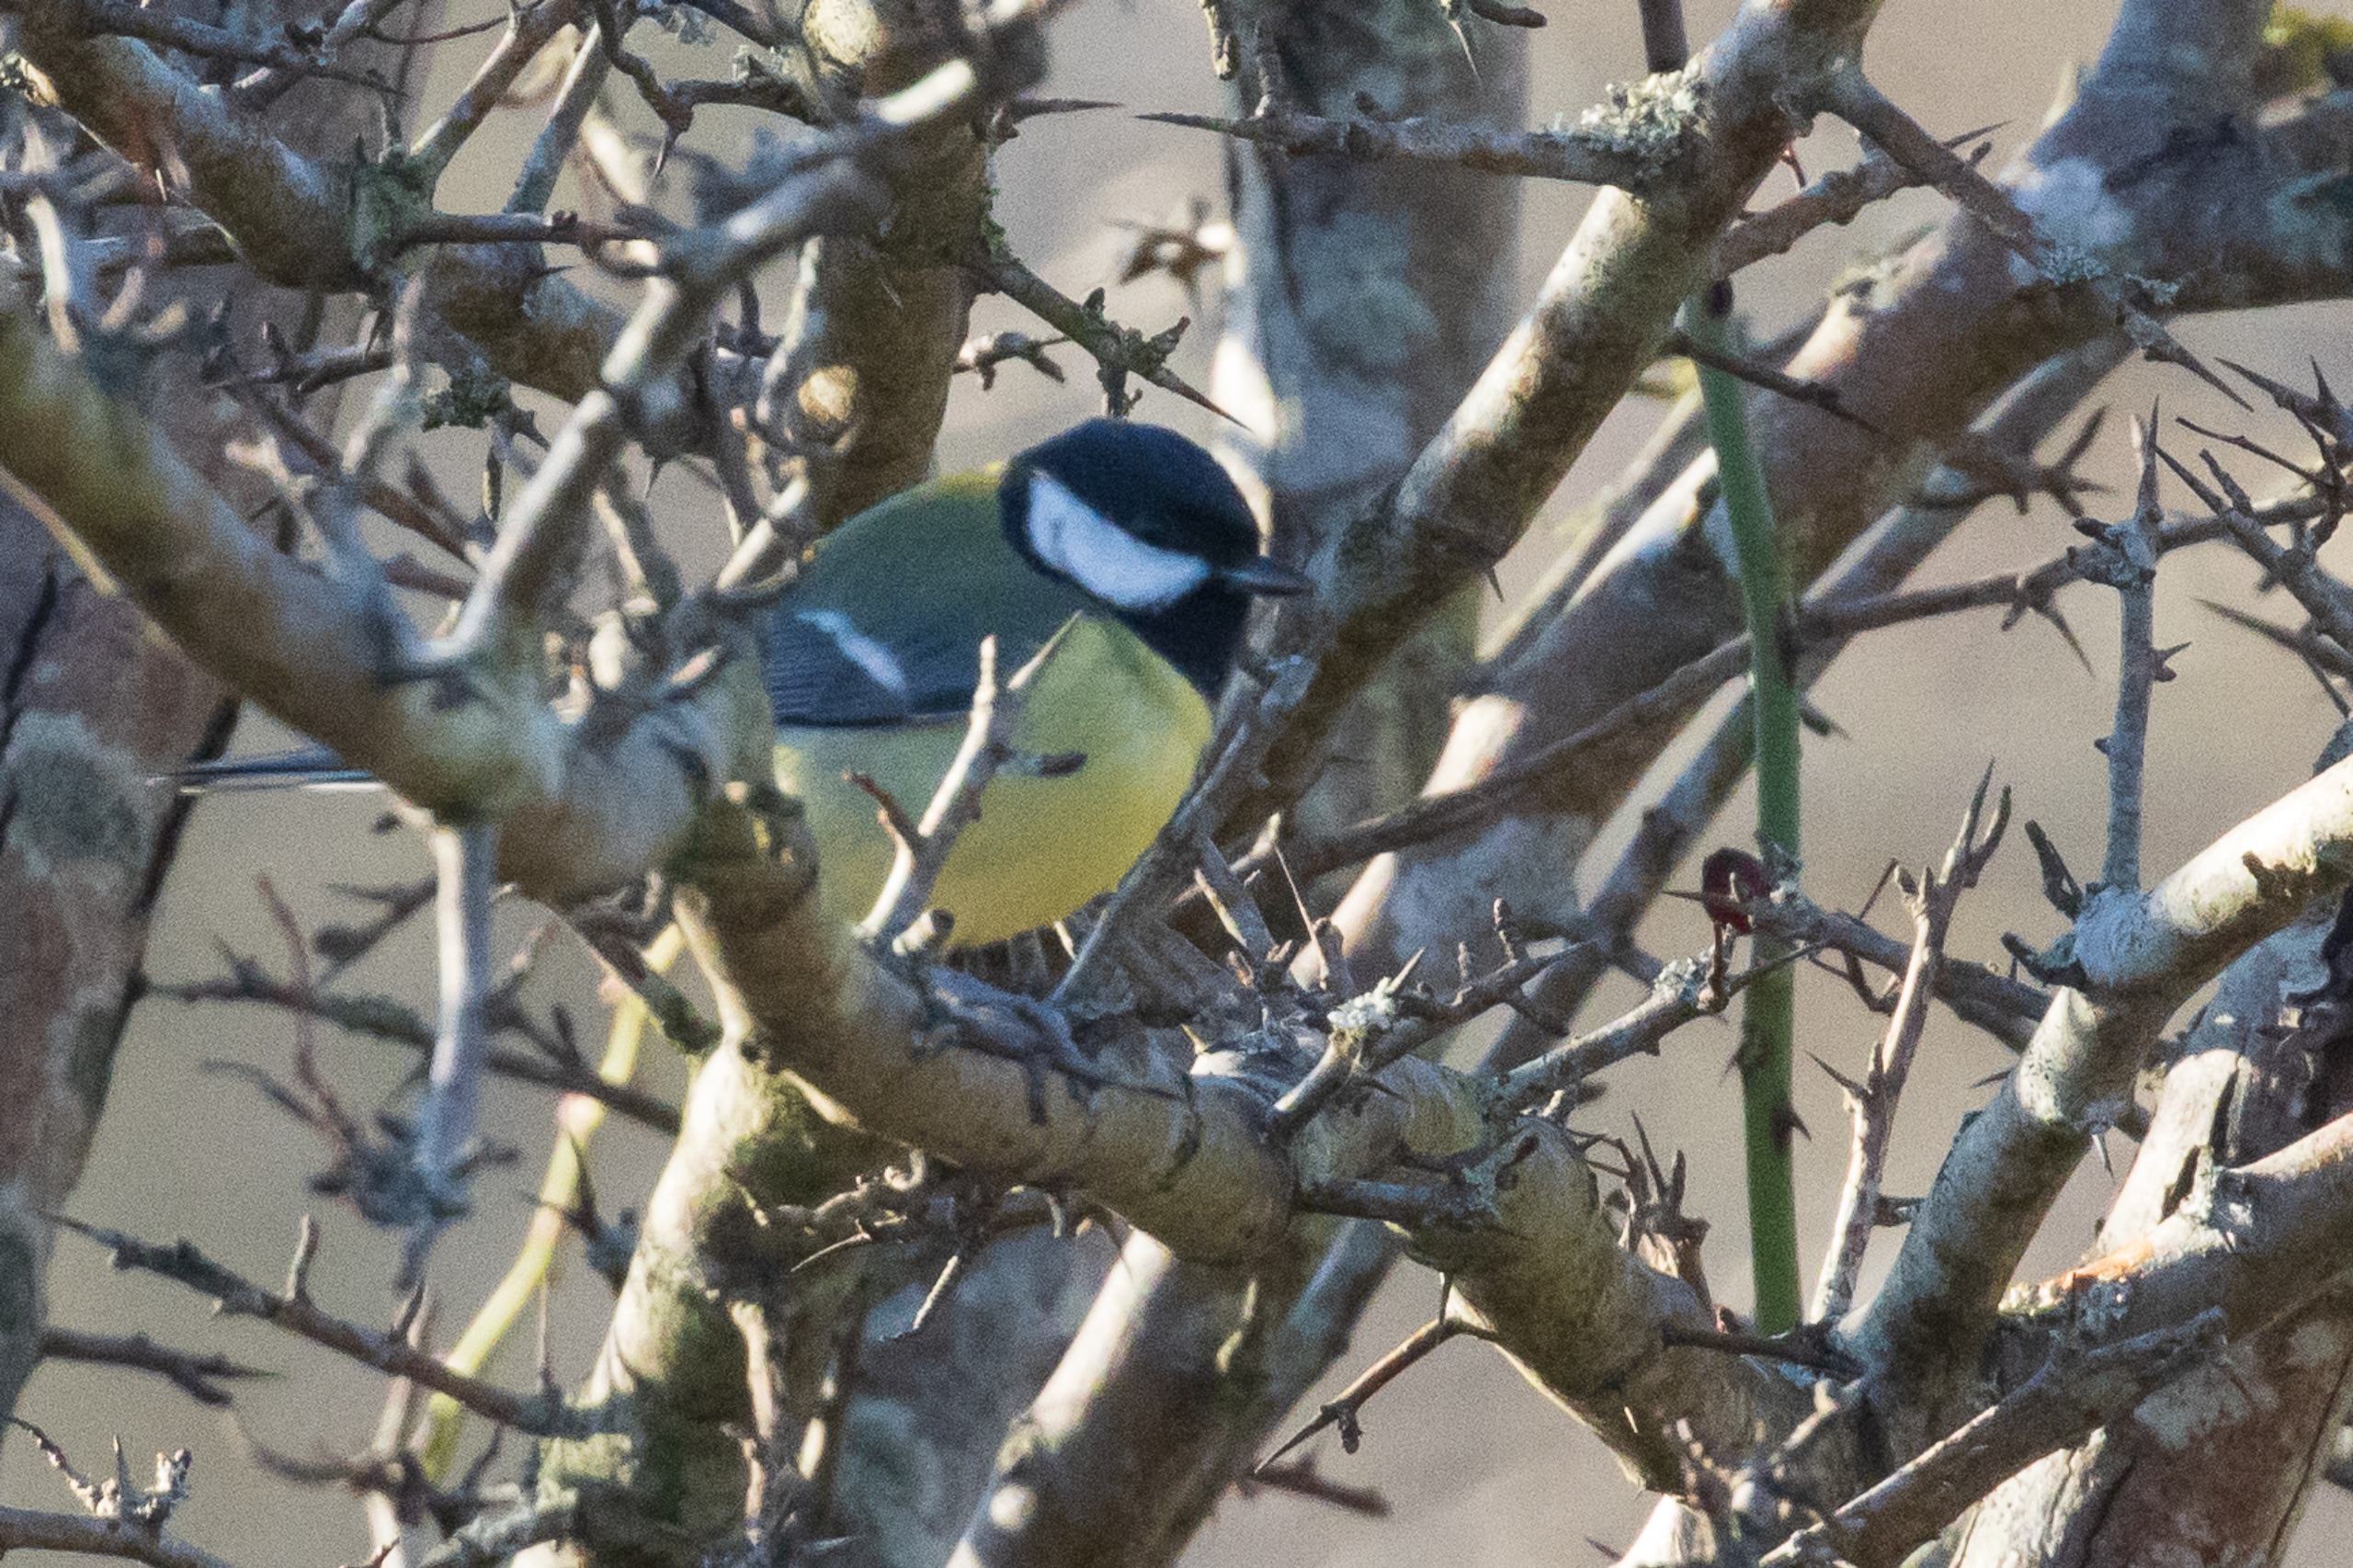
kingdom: Animalia
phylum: Chordata
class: Aves
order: Passeriformes
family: Paridae
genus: Parus
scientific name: Parus major
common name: Musvit
